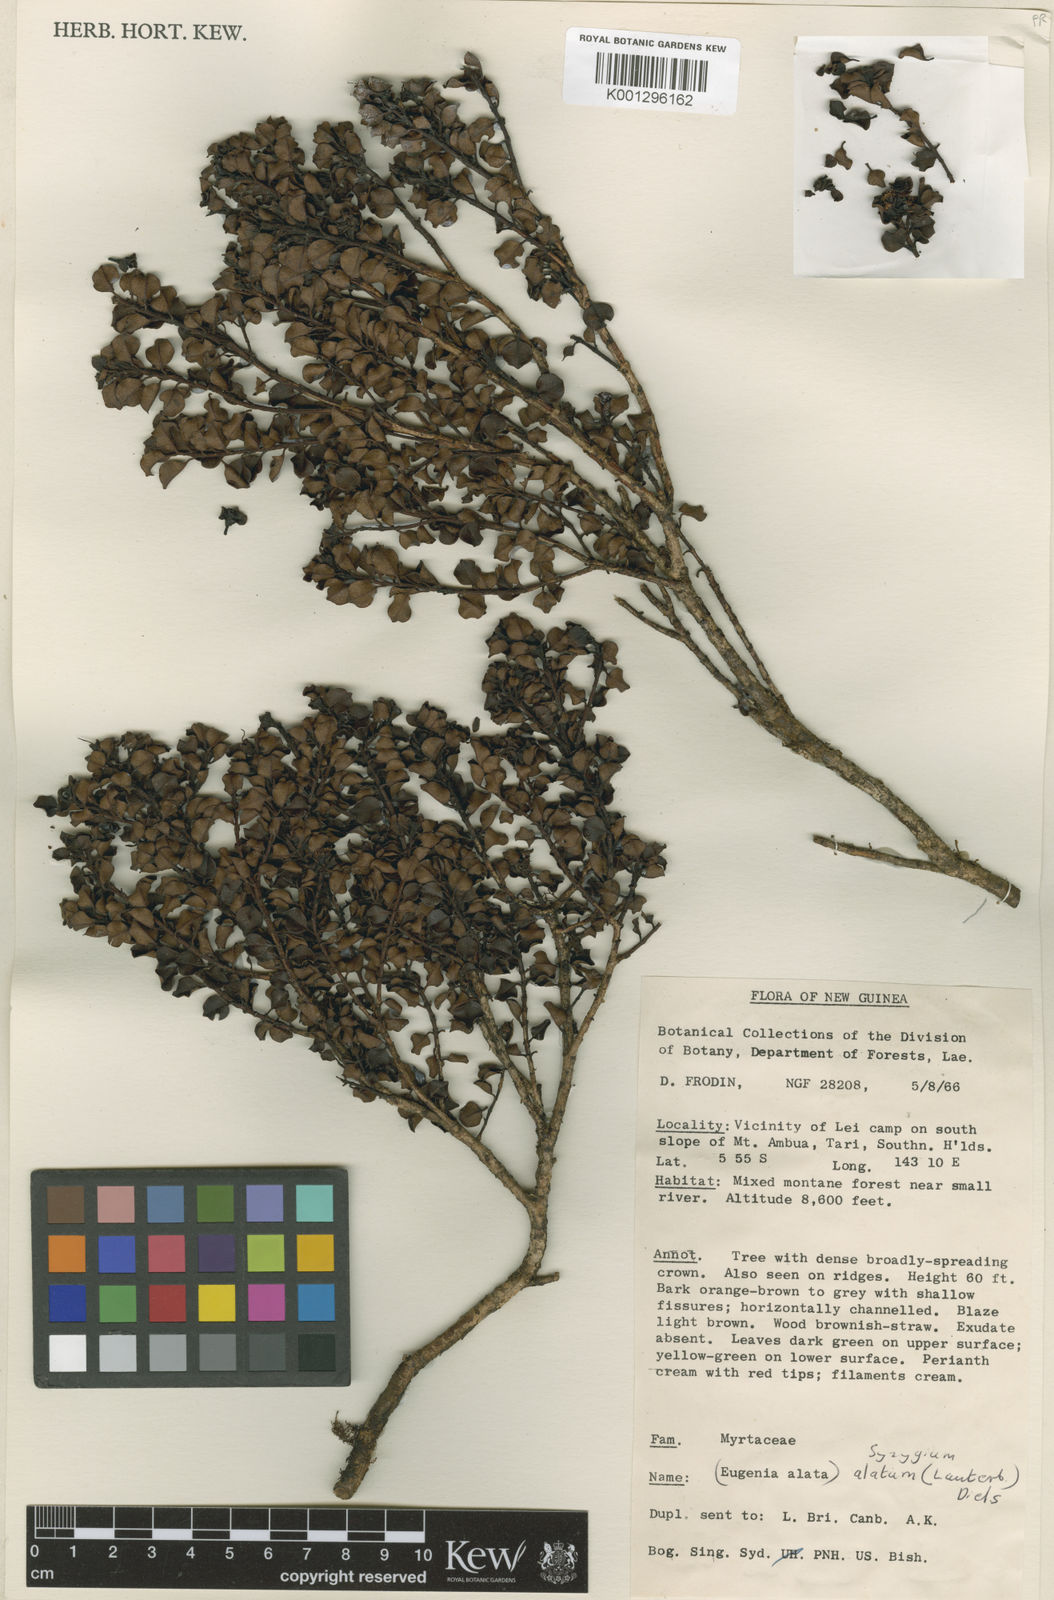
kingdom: Plantae
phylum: Tracheophyta
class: Magnoliopsida
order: Myrtales
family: Myrtaceae
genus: Syzygium
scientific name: Syzygium alatum
